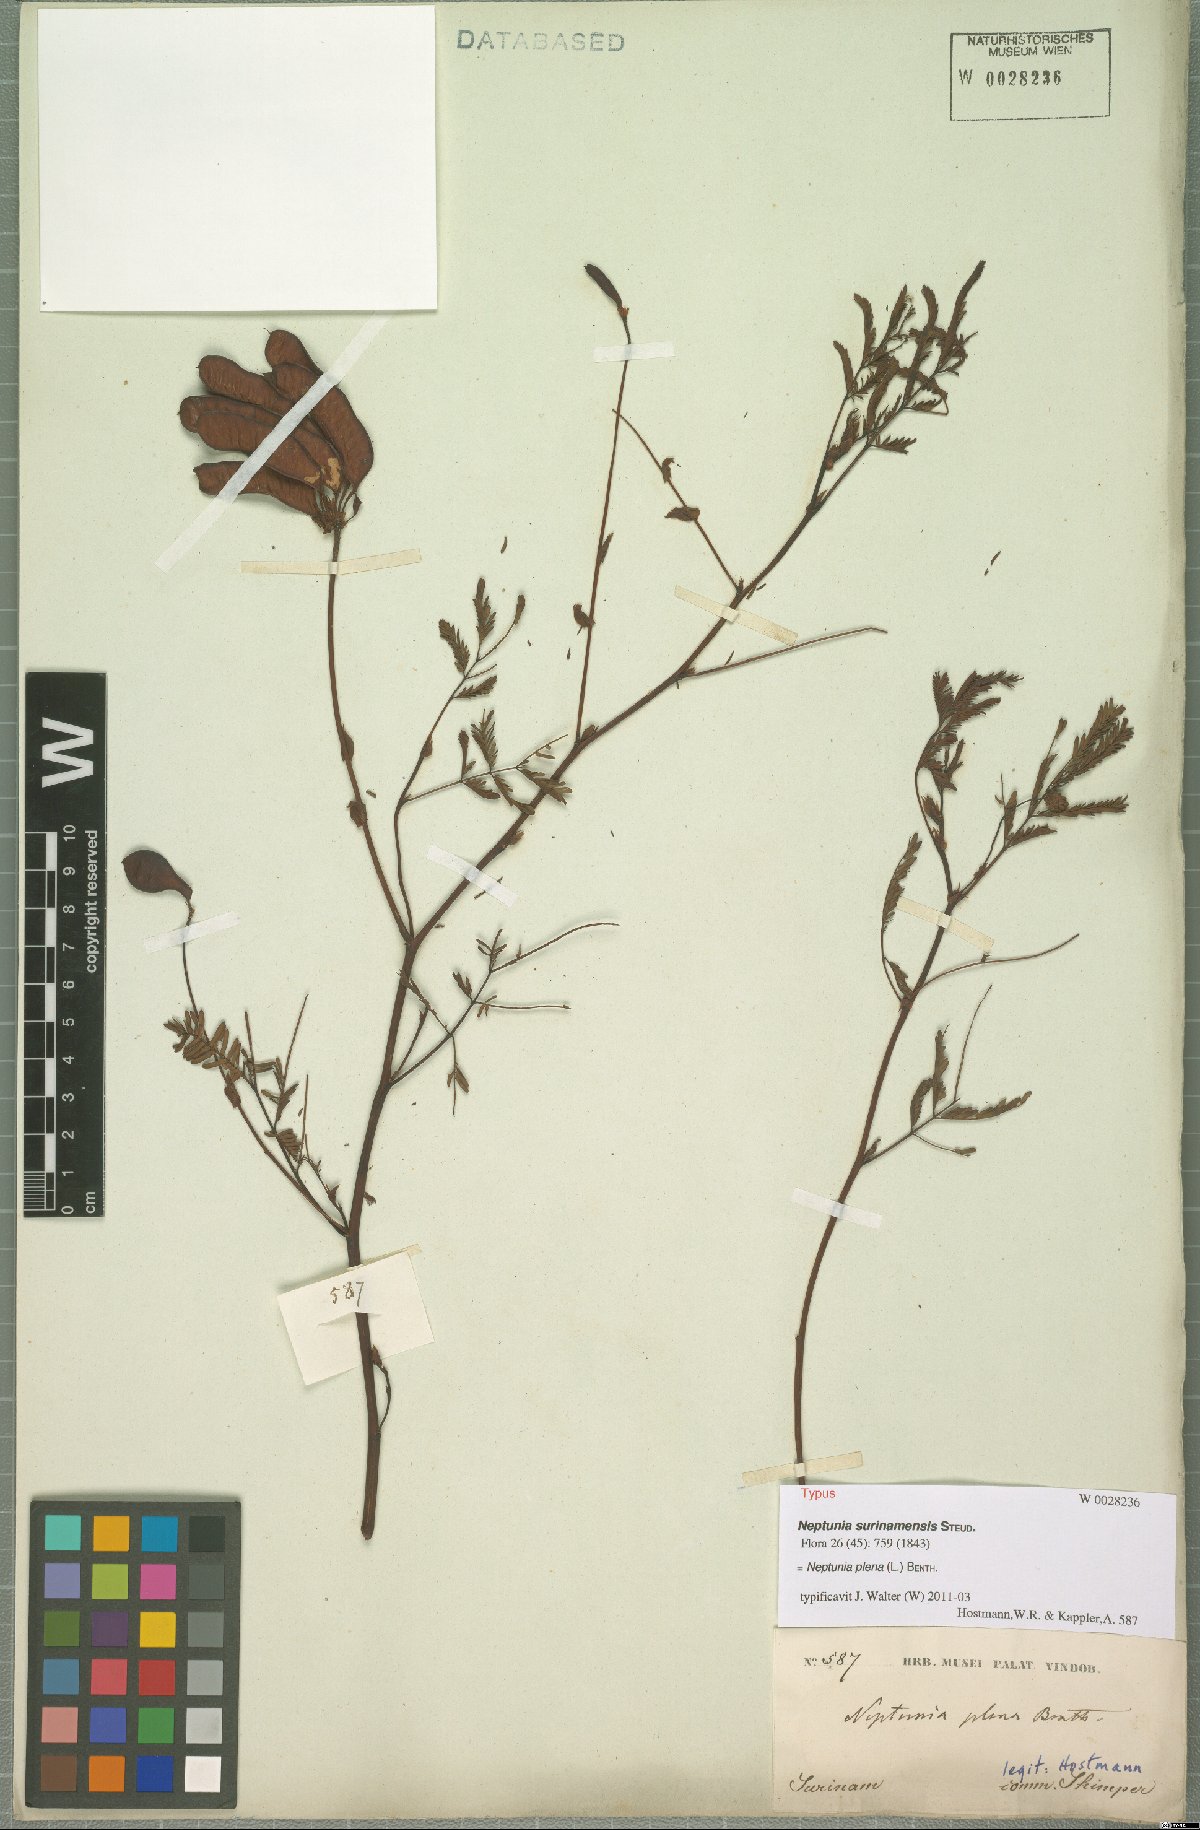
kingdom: Plantae
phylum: Tracheophyta
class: Magnoliopsida
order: Fabales
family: Fabaceae
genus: Neptunia
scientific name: Neptunia plena
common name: Dead and awake
